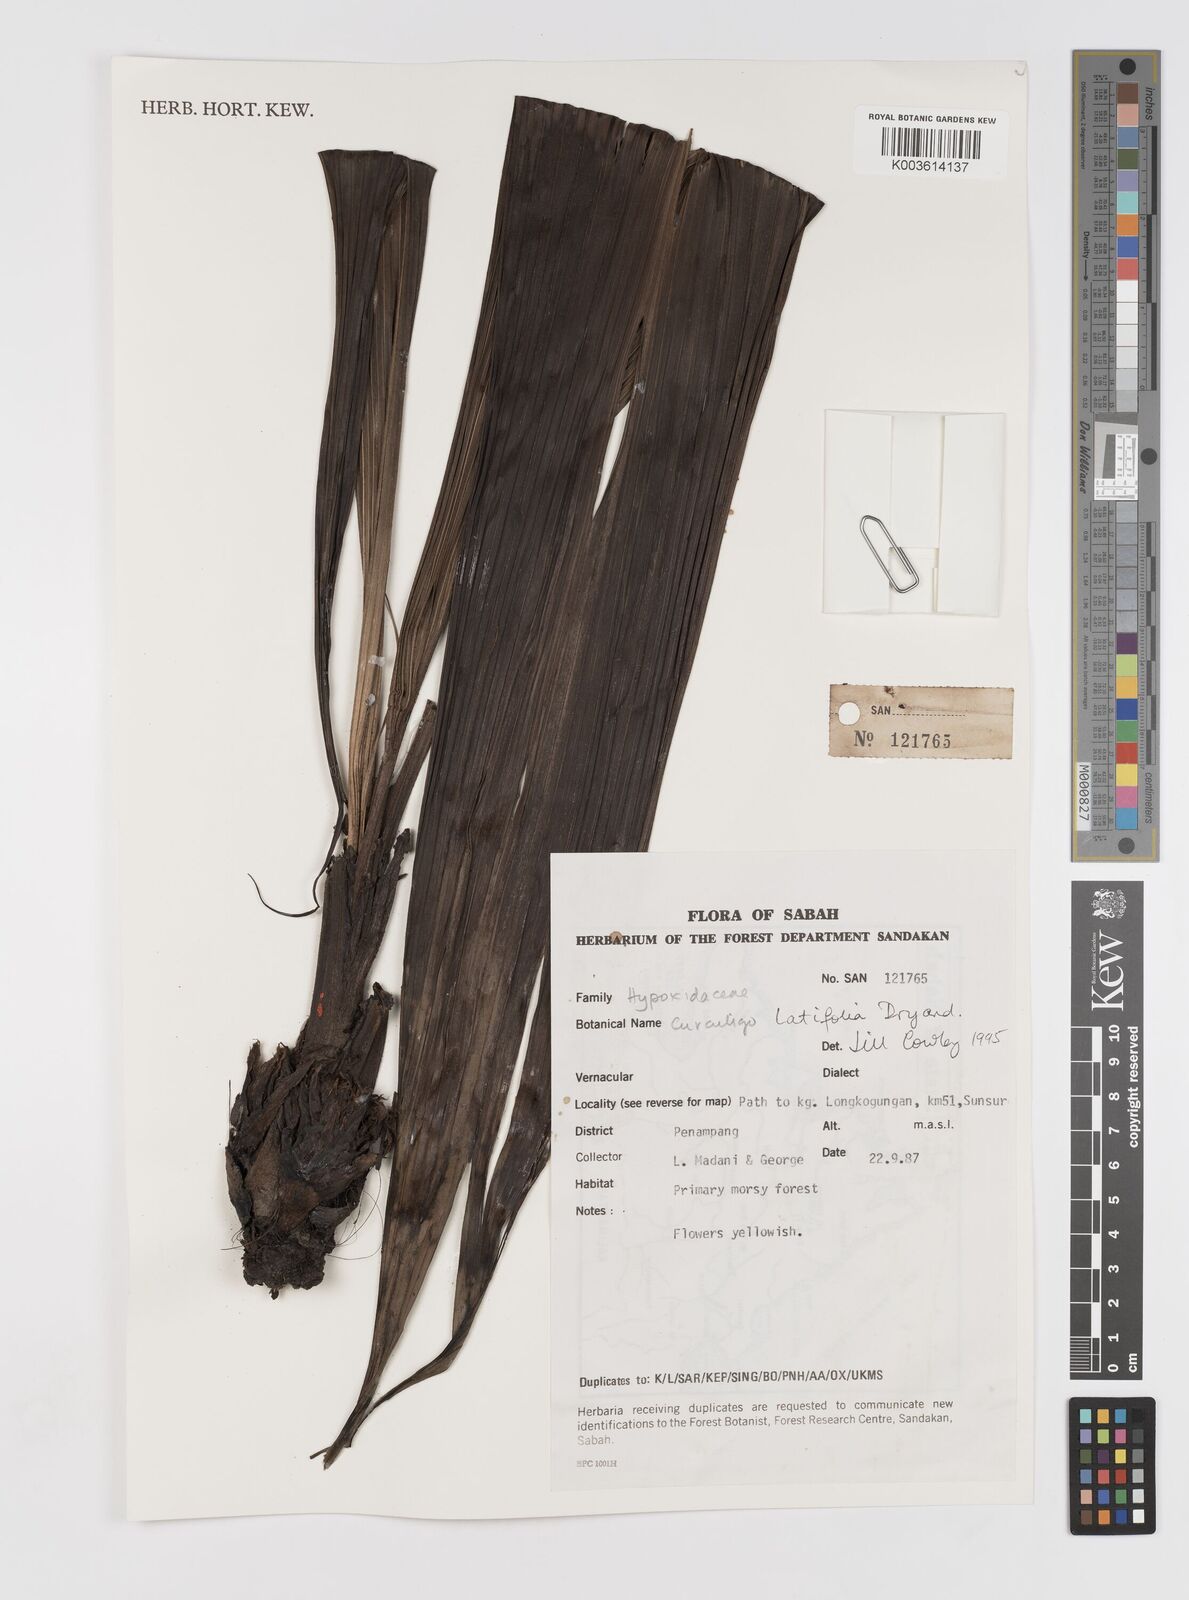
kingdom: Plantae
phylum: Tracheophyta
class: Liliopsida
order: Asparagales
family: Hypoxidaceae
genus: Curculigo
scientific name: Curculigo latifolia
